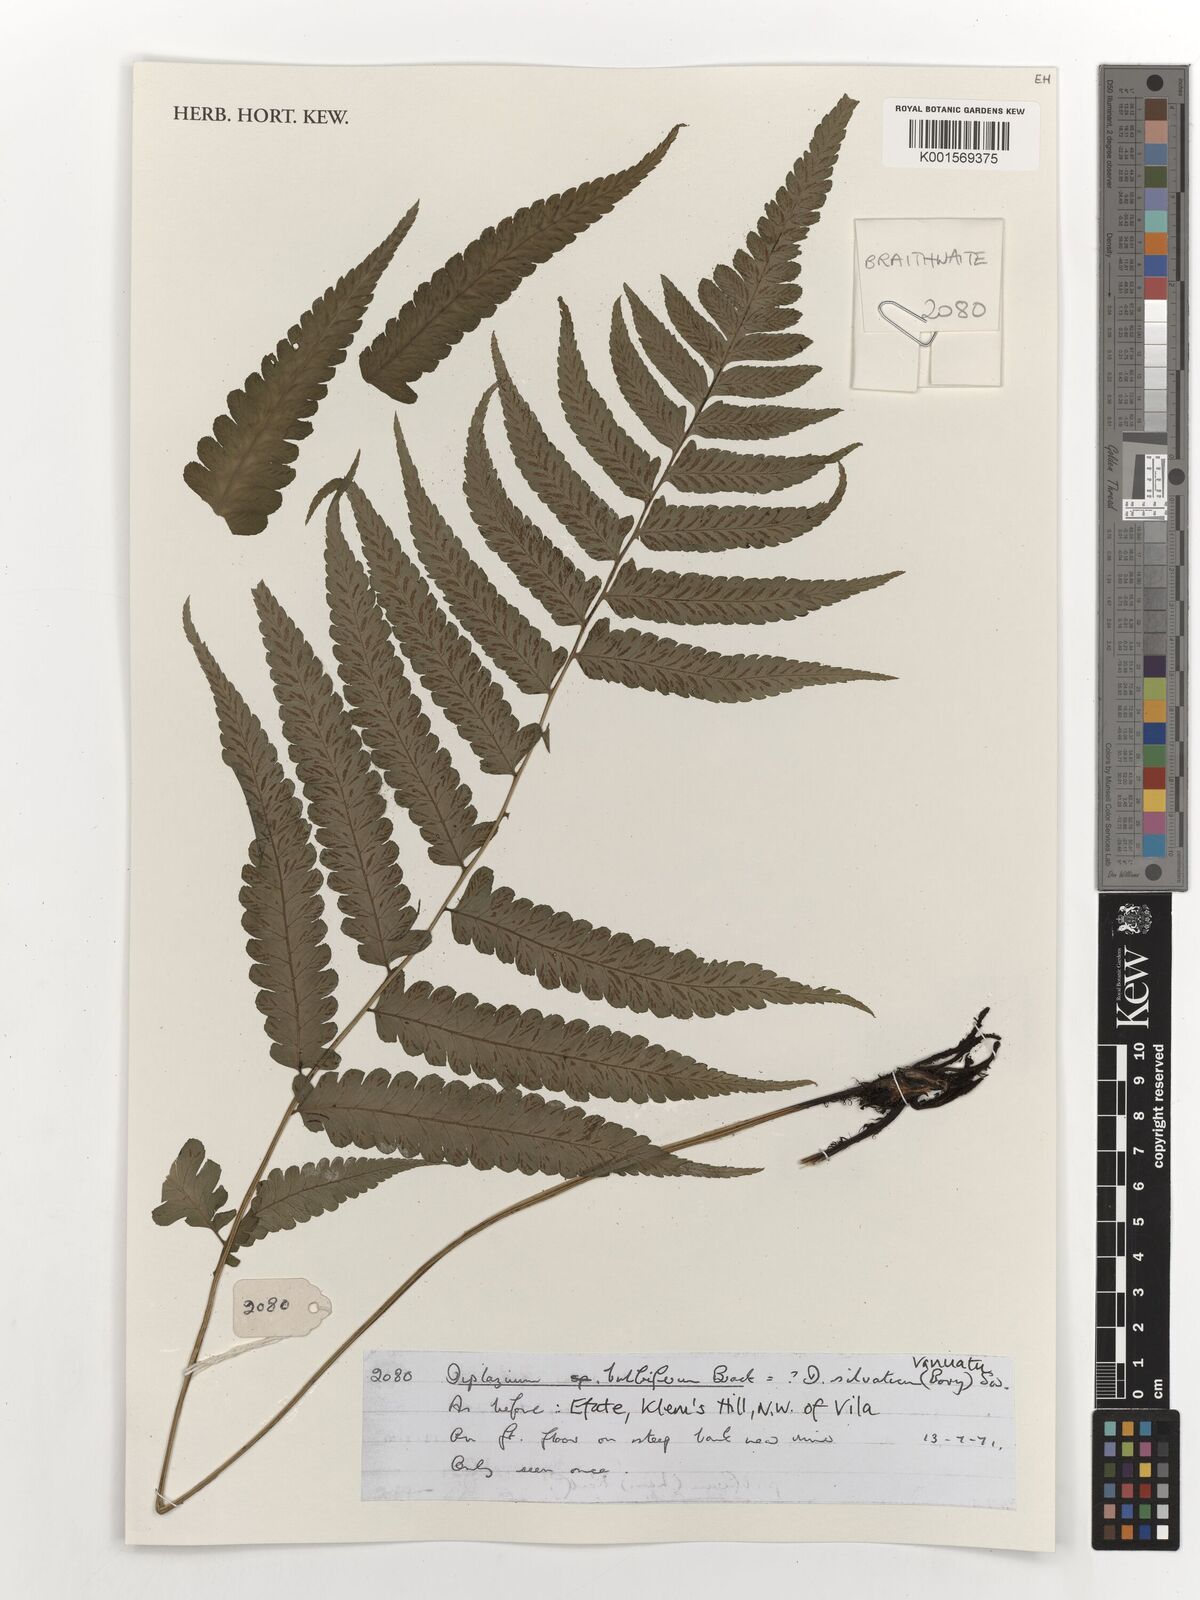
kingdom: Plantae
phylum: Tracheophyta
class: Polypodiopsida
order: Polypodiales
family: Athyriaceae
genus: Diplazium
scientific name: Diplazium bulbiferum
